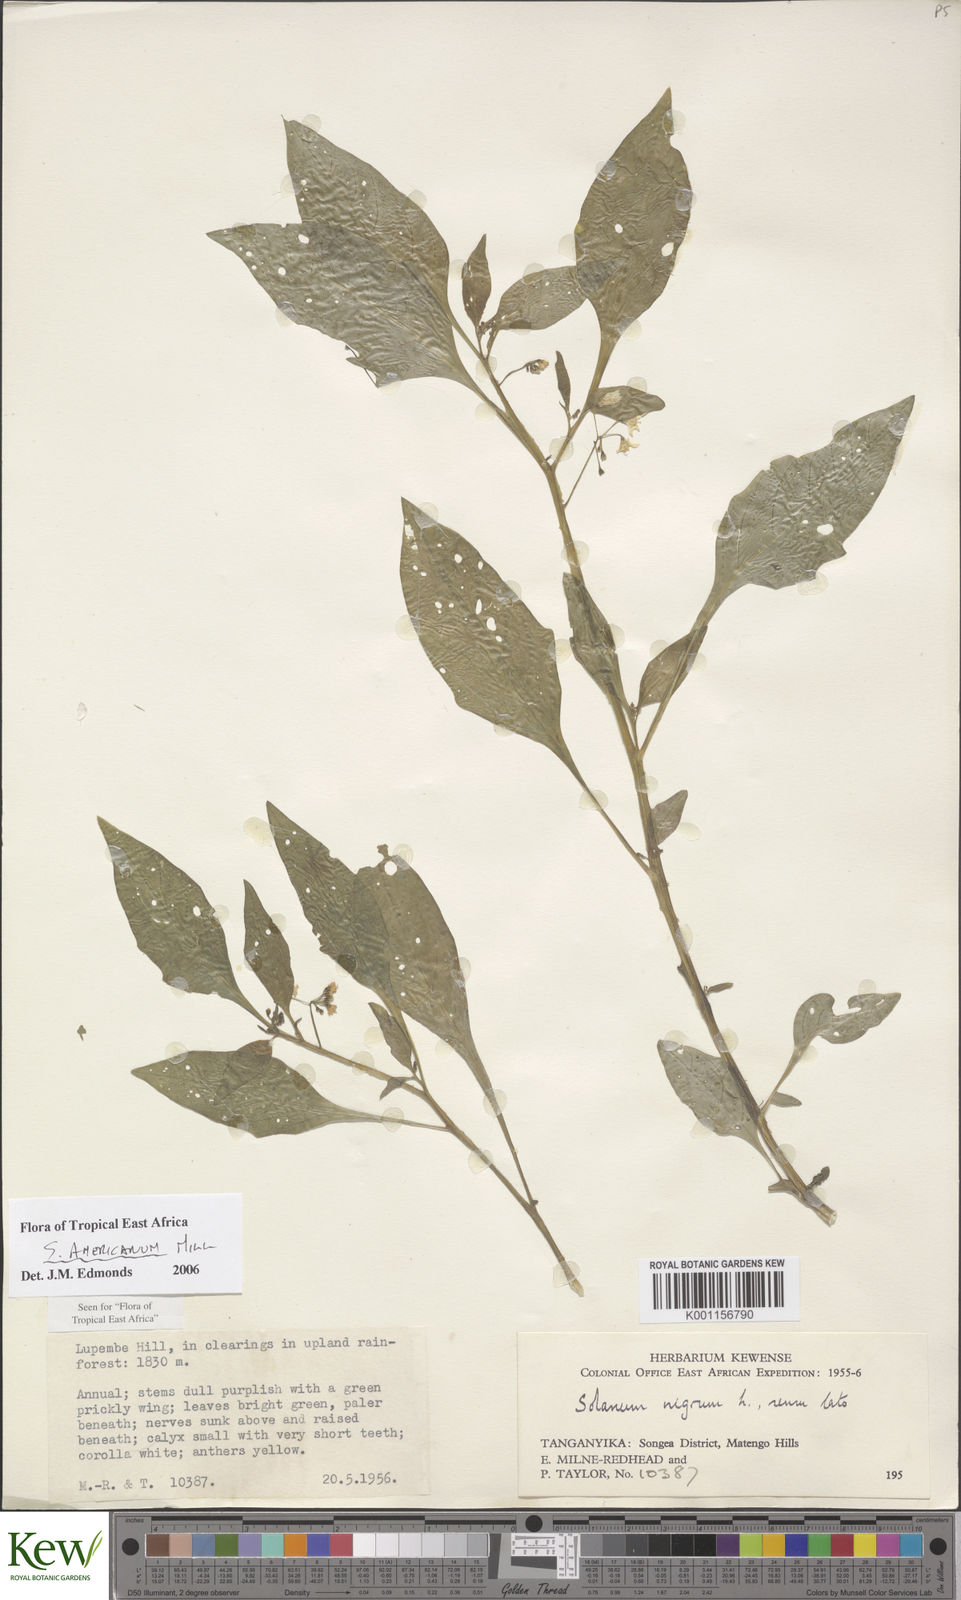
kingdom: Plantae
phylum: Tracheophyta
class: Magnoliopsida
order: Solanales
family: Solanaceae
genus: Solanum
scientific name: Solanum americanum
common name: American black nightshade
